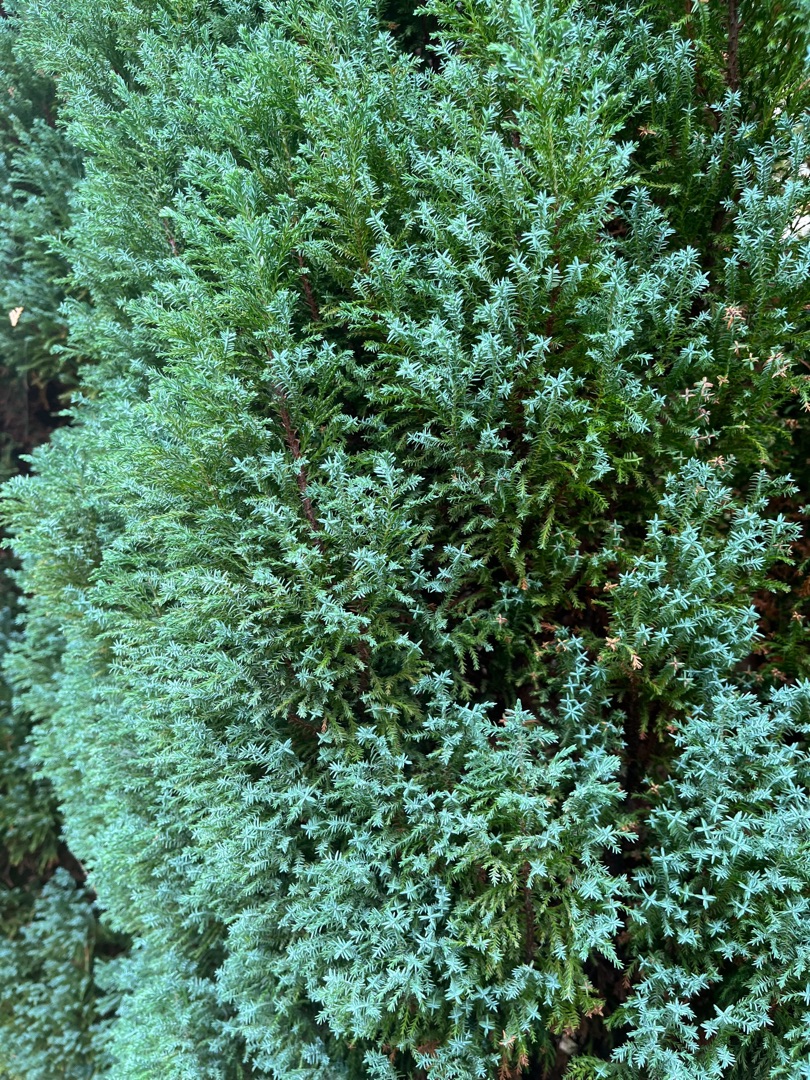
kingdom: Plantae
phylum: Tracheophyta
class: Pinopsida
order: Pinales
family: Cupressaceae
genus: Juniperus
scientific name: Juniperus
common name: Eneslægten
